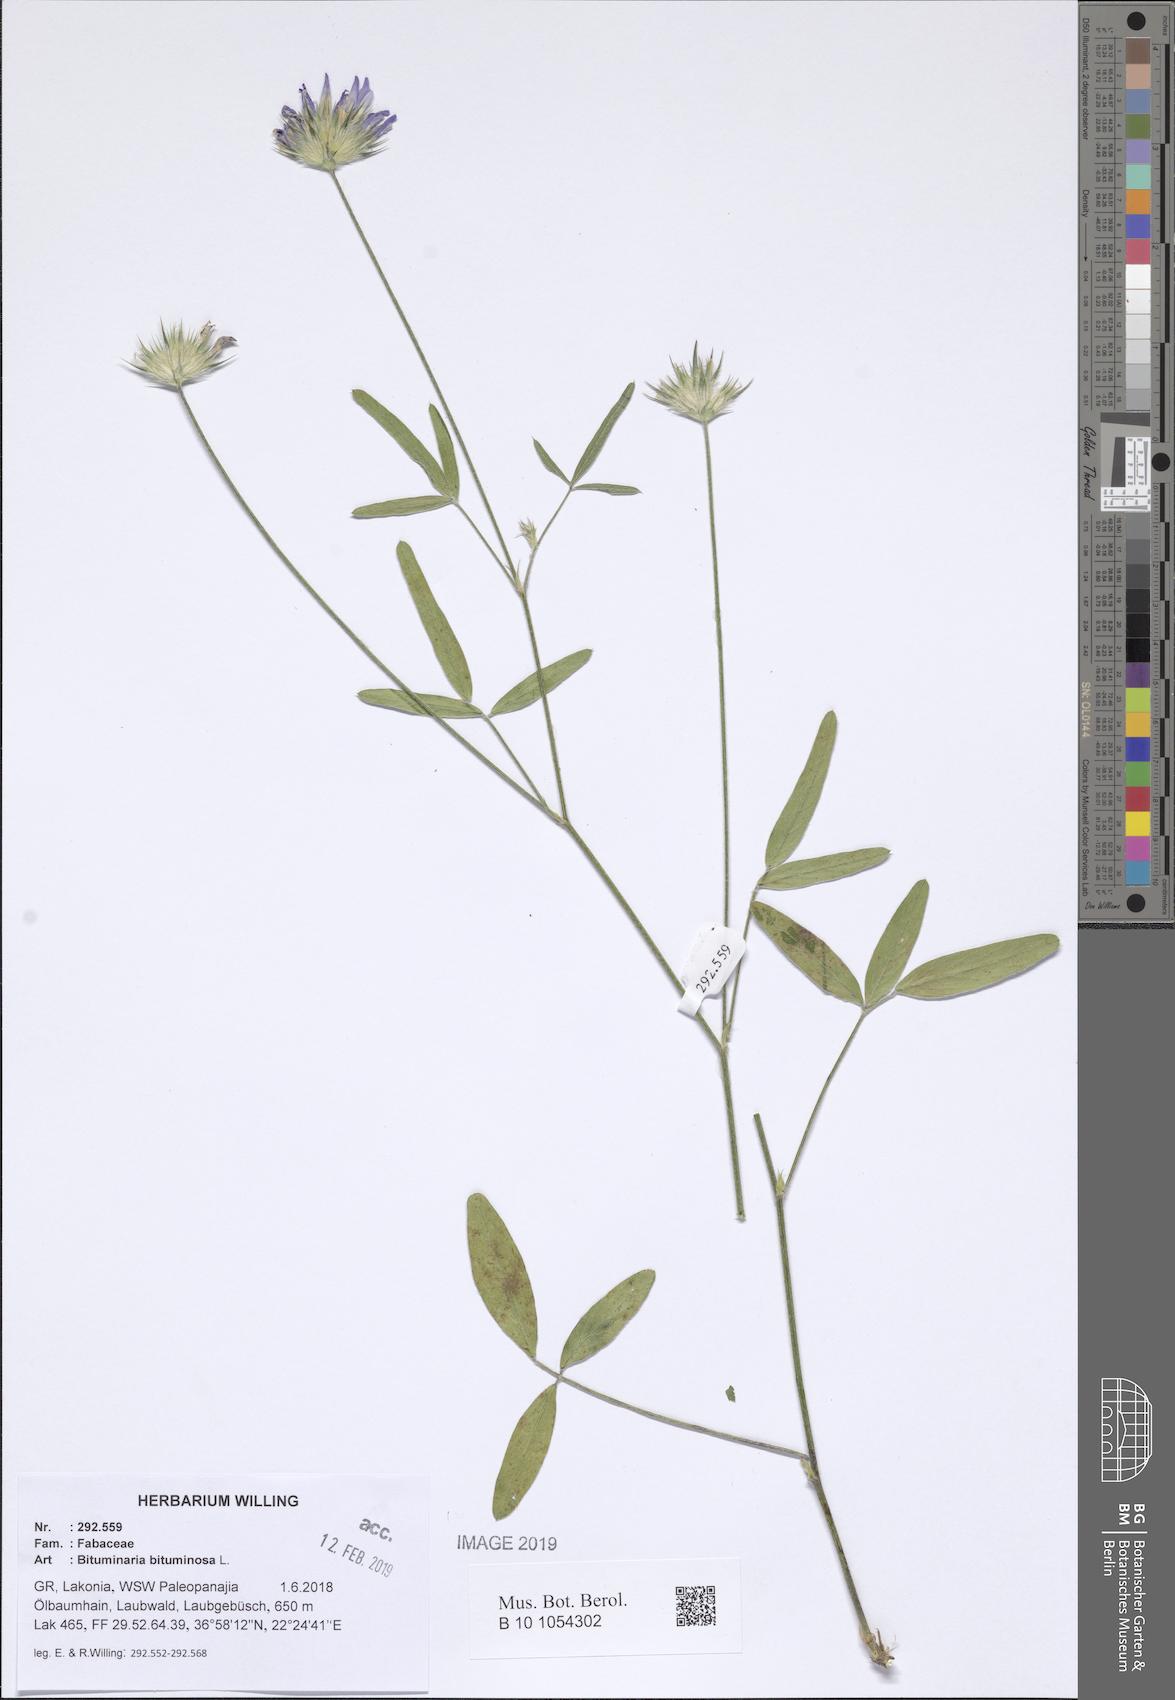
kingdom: Plantae
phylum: Tracheophyta
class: Magnoliopsida
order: Fabales
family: Fabaceae
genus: Bituminaria
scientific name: Bituminaria bituminosa
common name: Arabian pea
